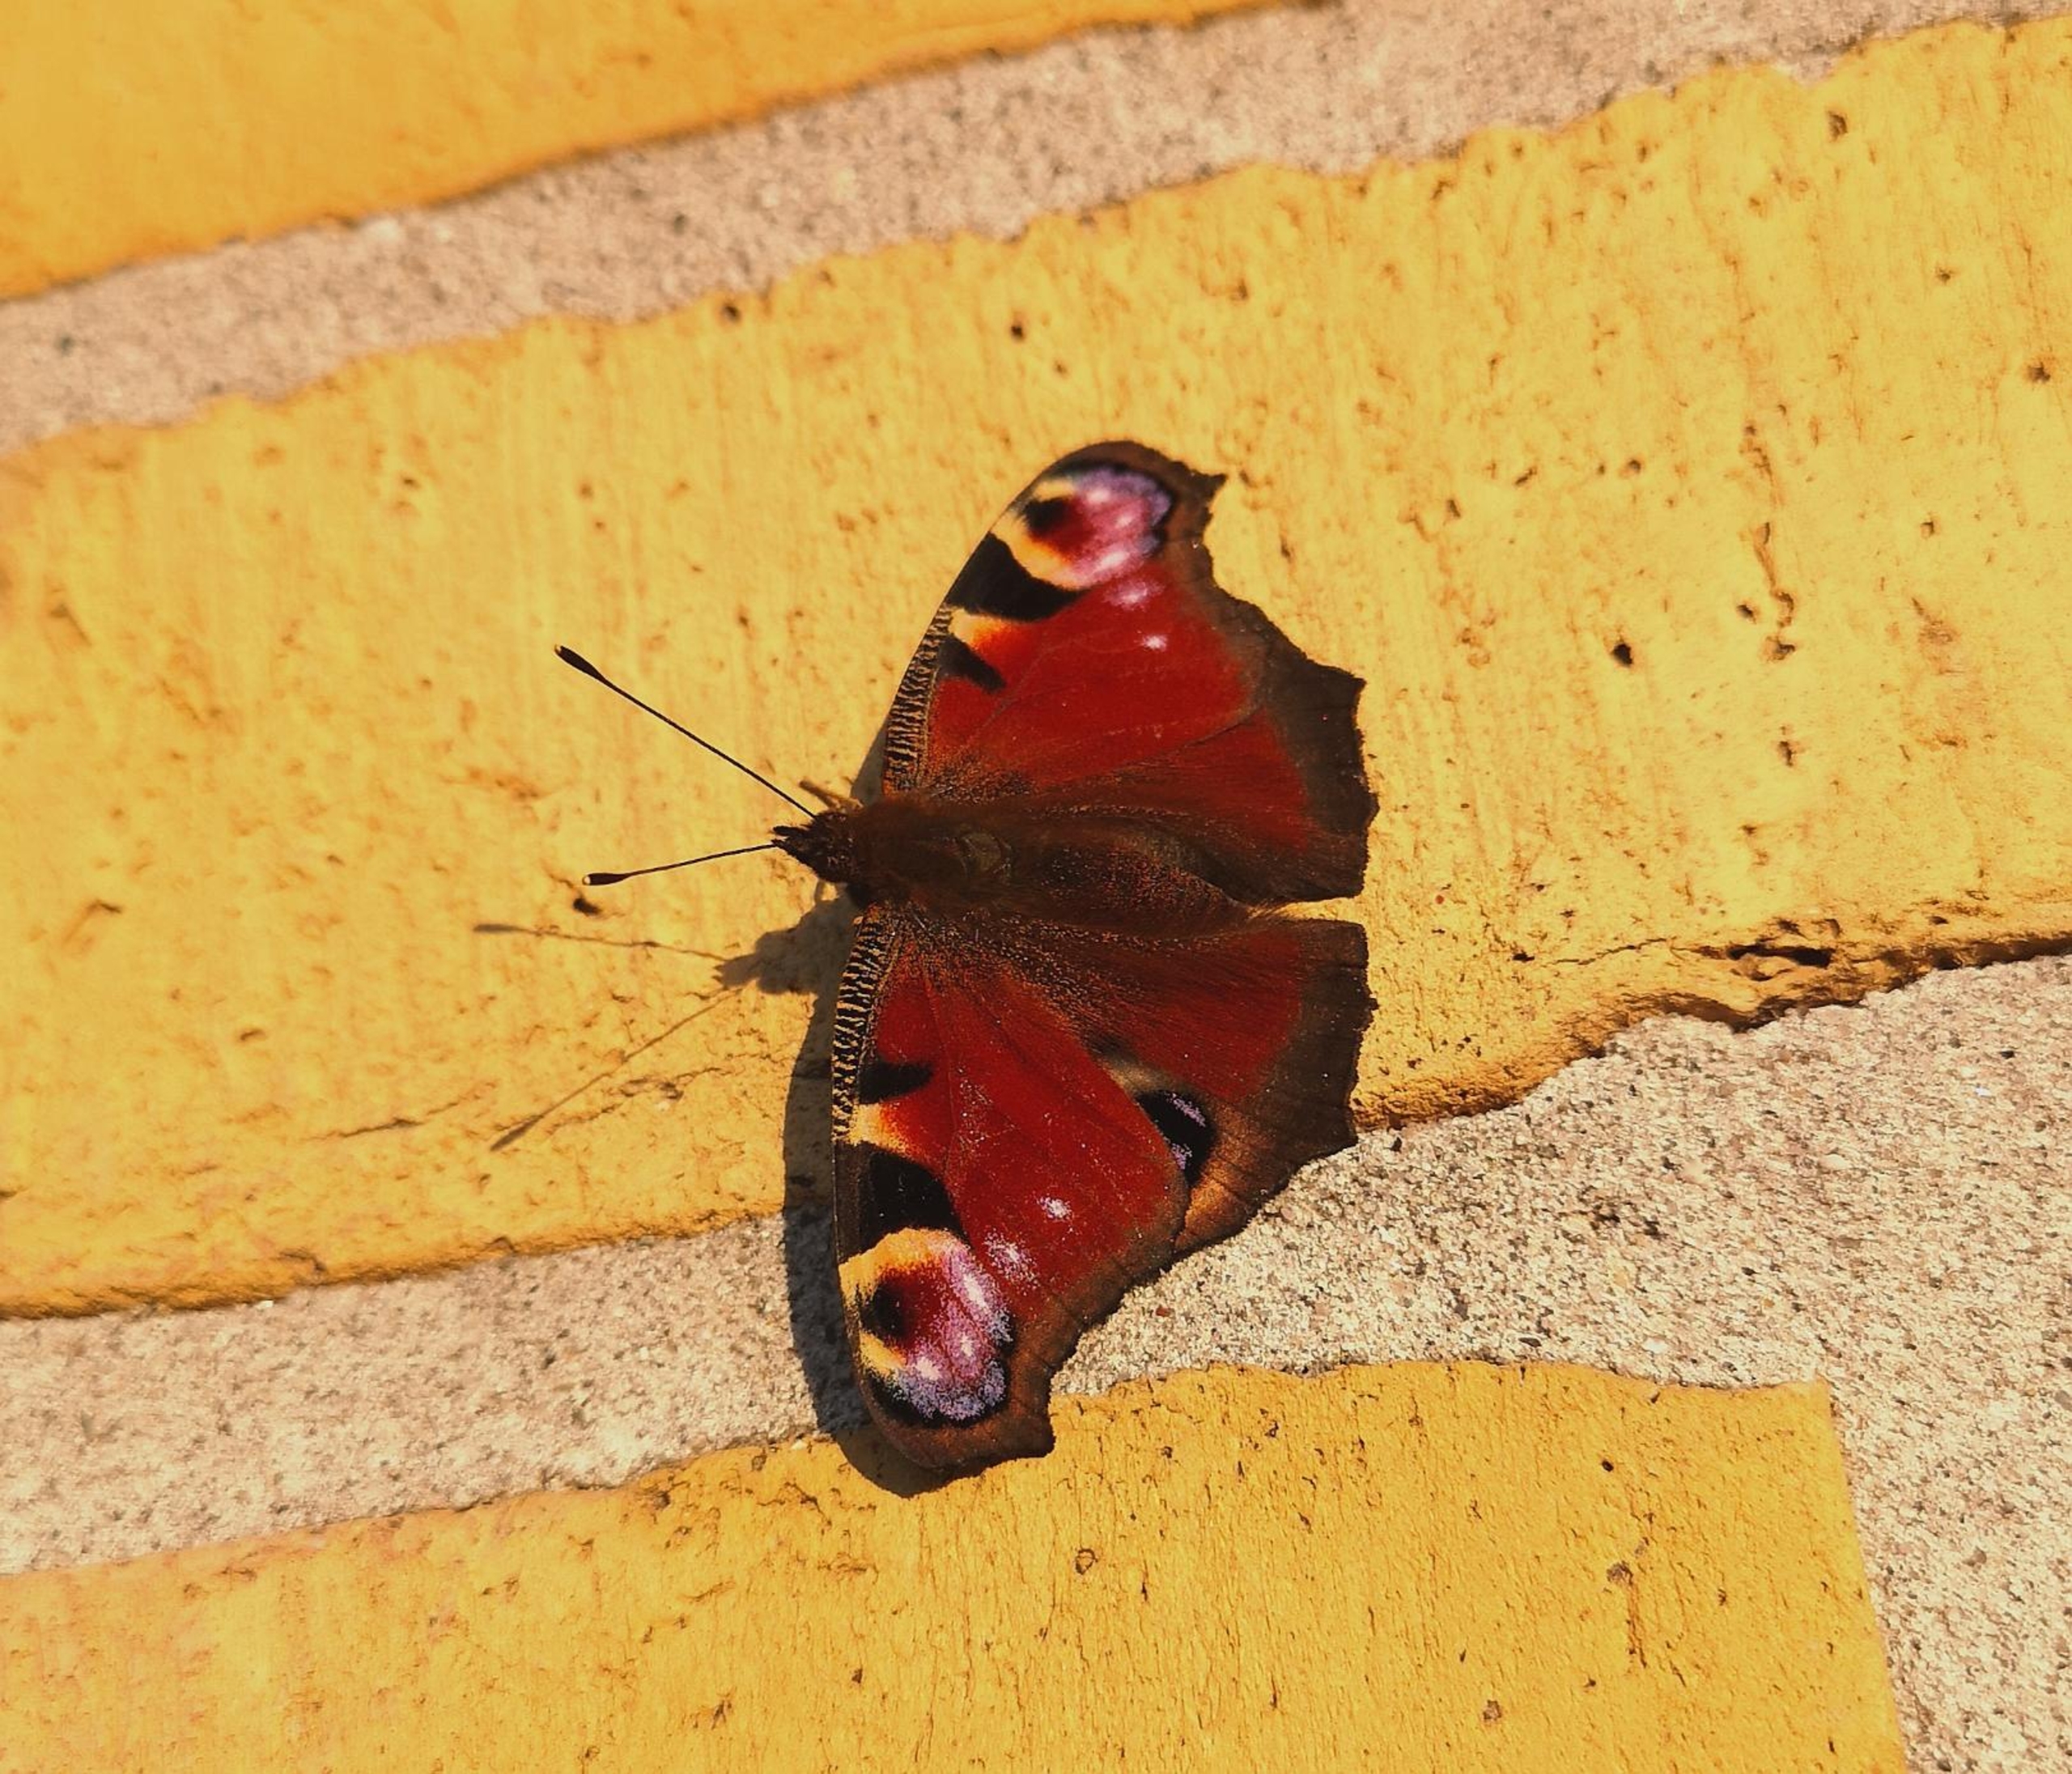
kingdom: Animalia
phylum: Arthropoda
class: Insecta
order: Lepidoptera
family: Nymphalidae
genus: Aglais
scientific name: Aglais io
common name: Dagpåfugleøje
